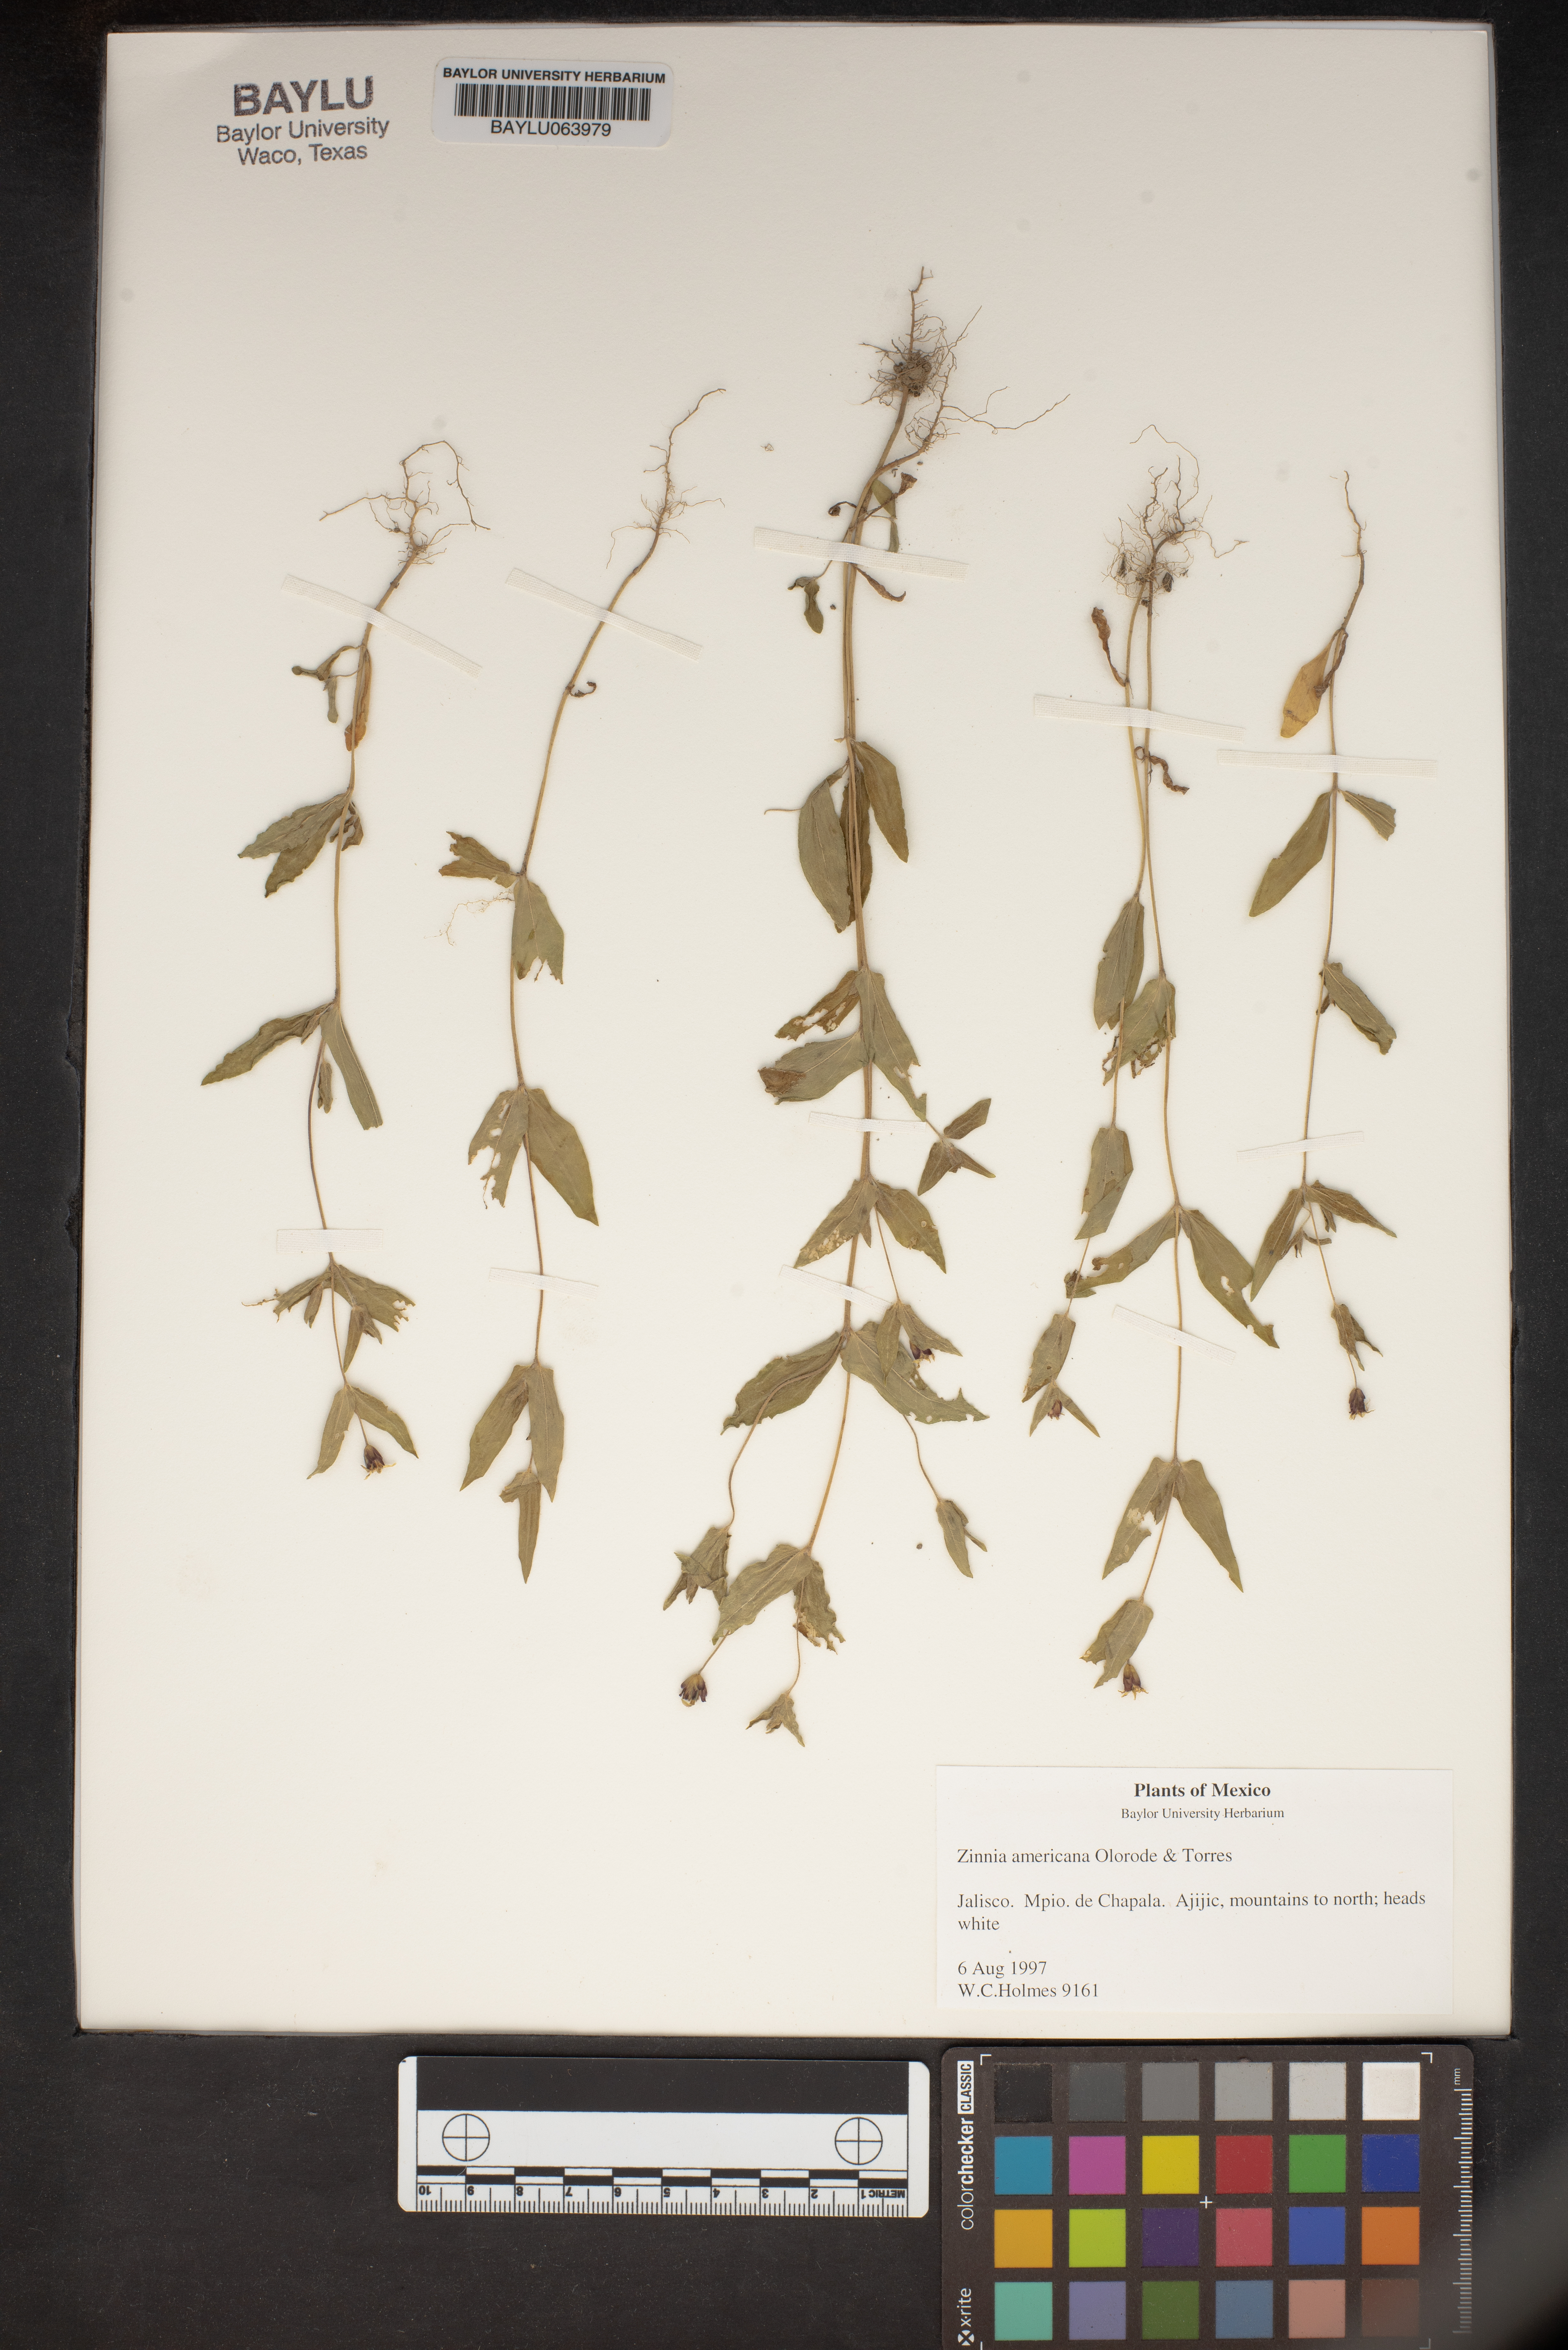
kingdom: Plantae
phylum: Tracheophyta
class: Magnoliopsida
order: Asterales
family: Asteraceae
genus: Zinnia
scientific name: Zinnia americana
